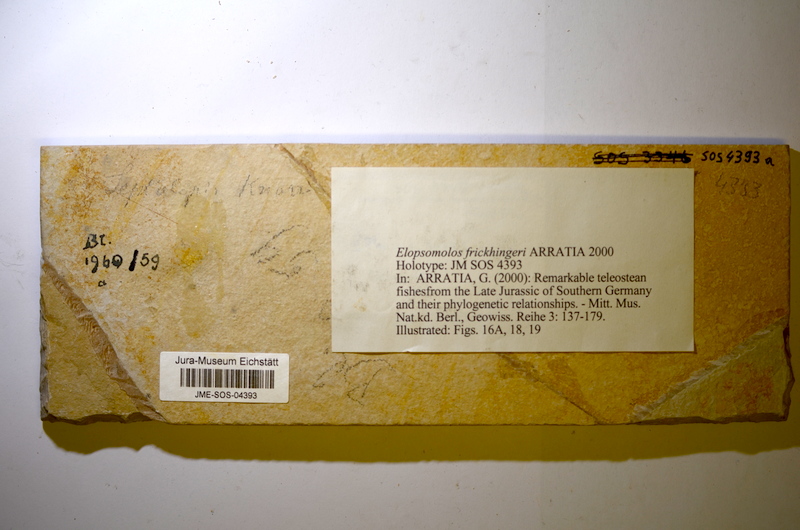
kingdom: Animalia
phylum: Chordata
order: Elopiformes
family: Elopidae
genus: Elopsomolos
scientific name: Elopsomolos frickhingeri
